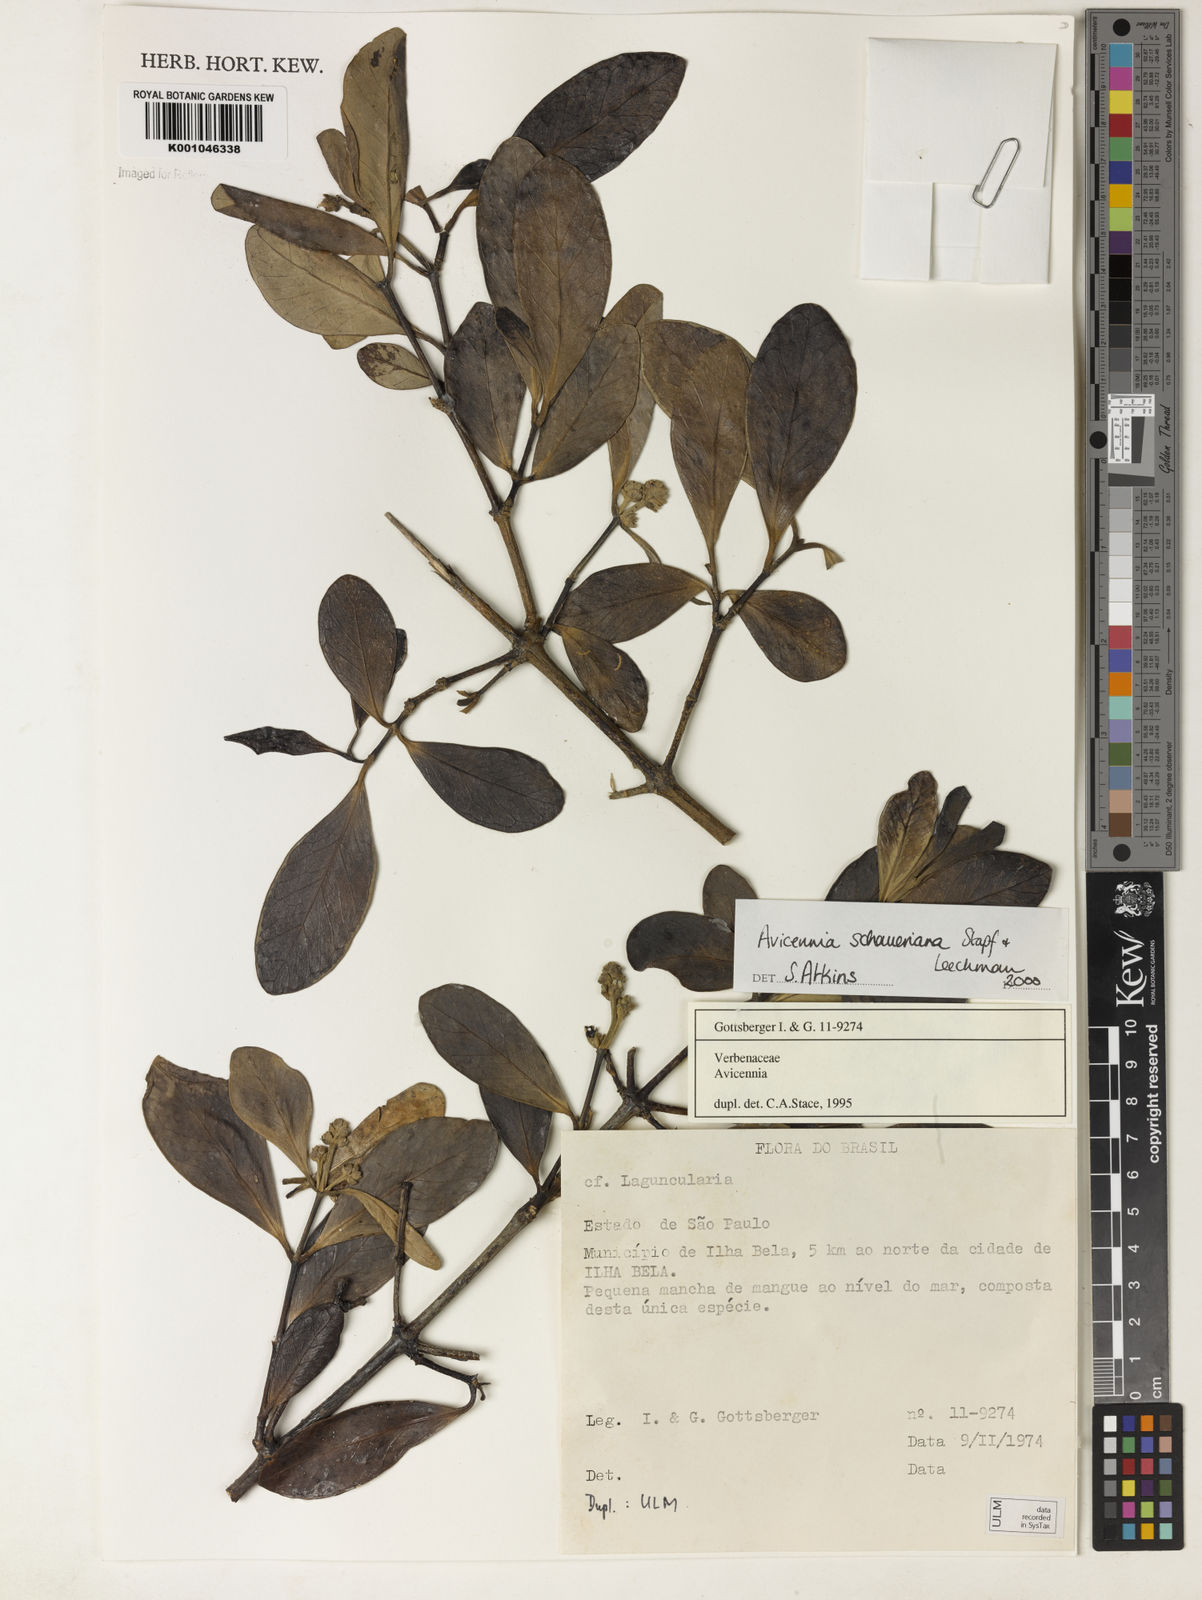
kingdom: Plantae
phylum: Tracheophyta
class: Magnoliopsida
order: Lamiales
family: Acanthaceae
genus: Avicennia
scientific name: Avicennia schaueriana
